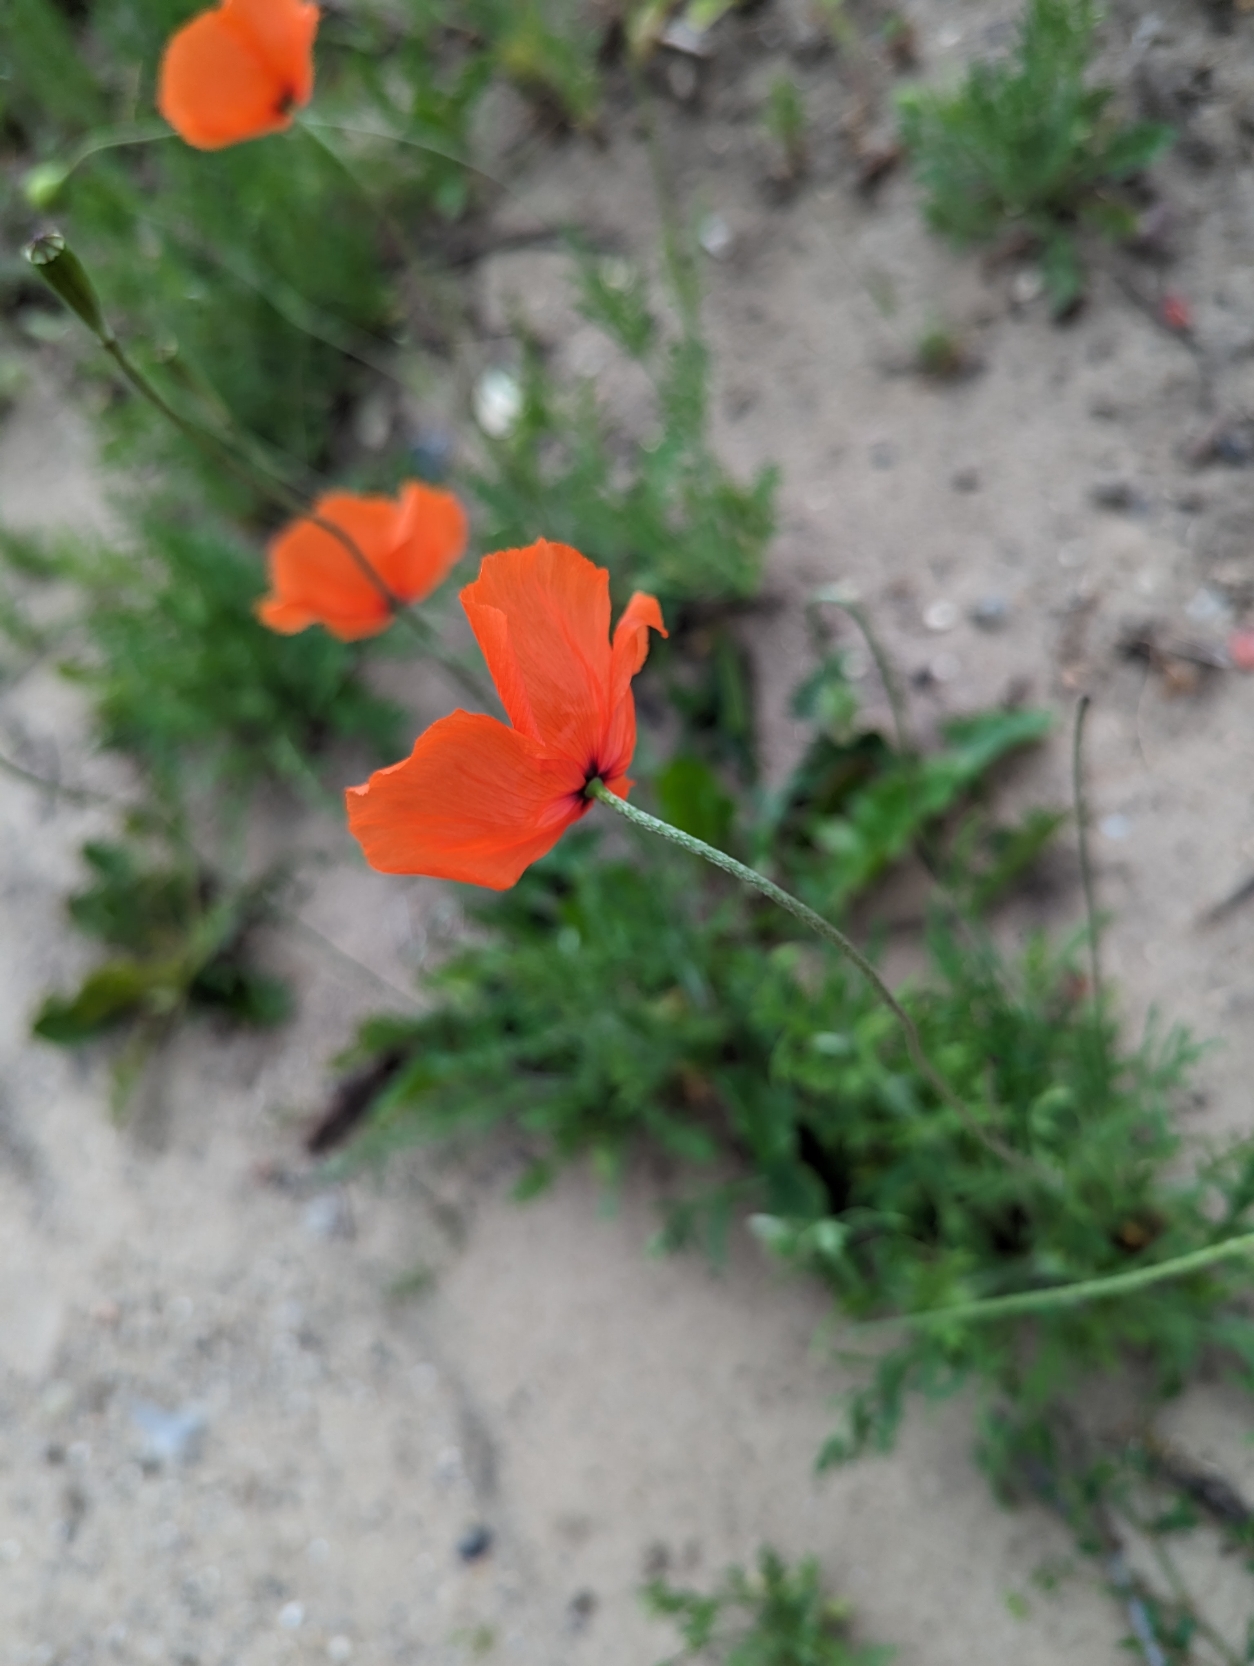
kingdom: Plantae
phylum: Tracheophyta
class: Magnoliopsida
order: Ranunculales
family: Papaveraceae
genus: Papaver
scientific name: Papaver dubium
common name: Gærde-valmue
